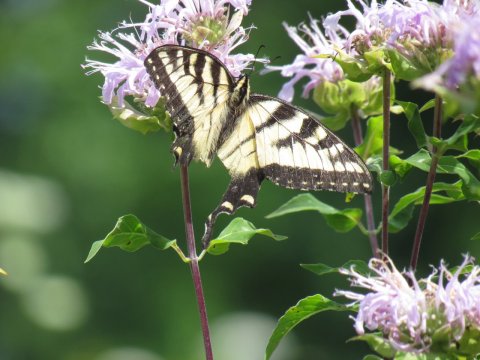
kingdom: Animalia
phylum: Arthropoda
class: Insecta
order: Lepidoptera
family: Papilionidae
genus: Pterourus
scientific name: Pterourus
